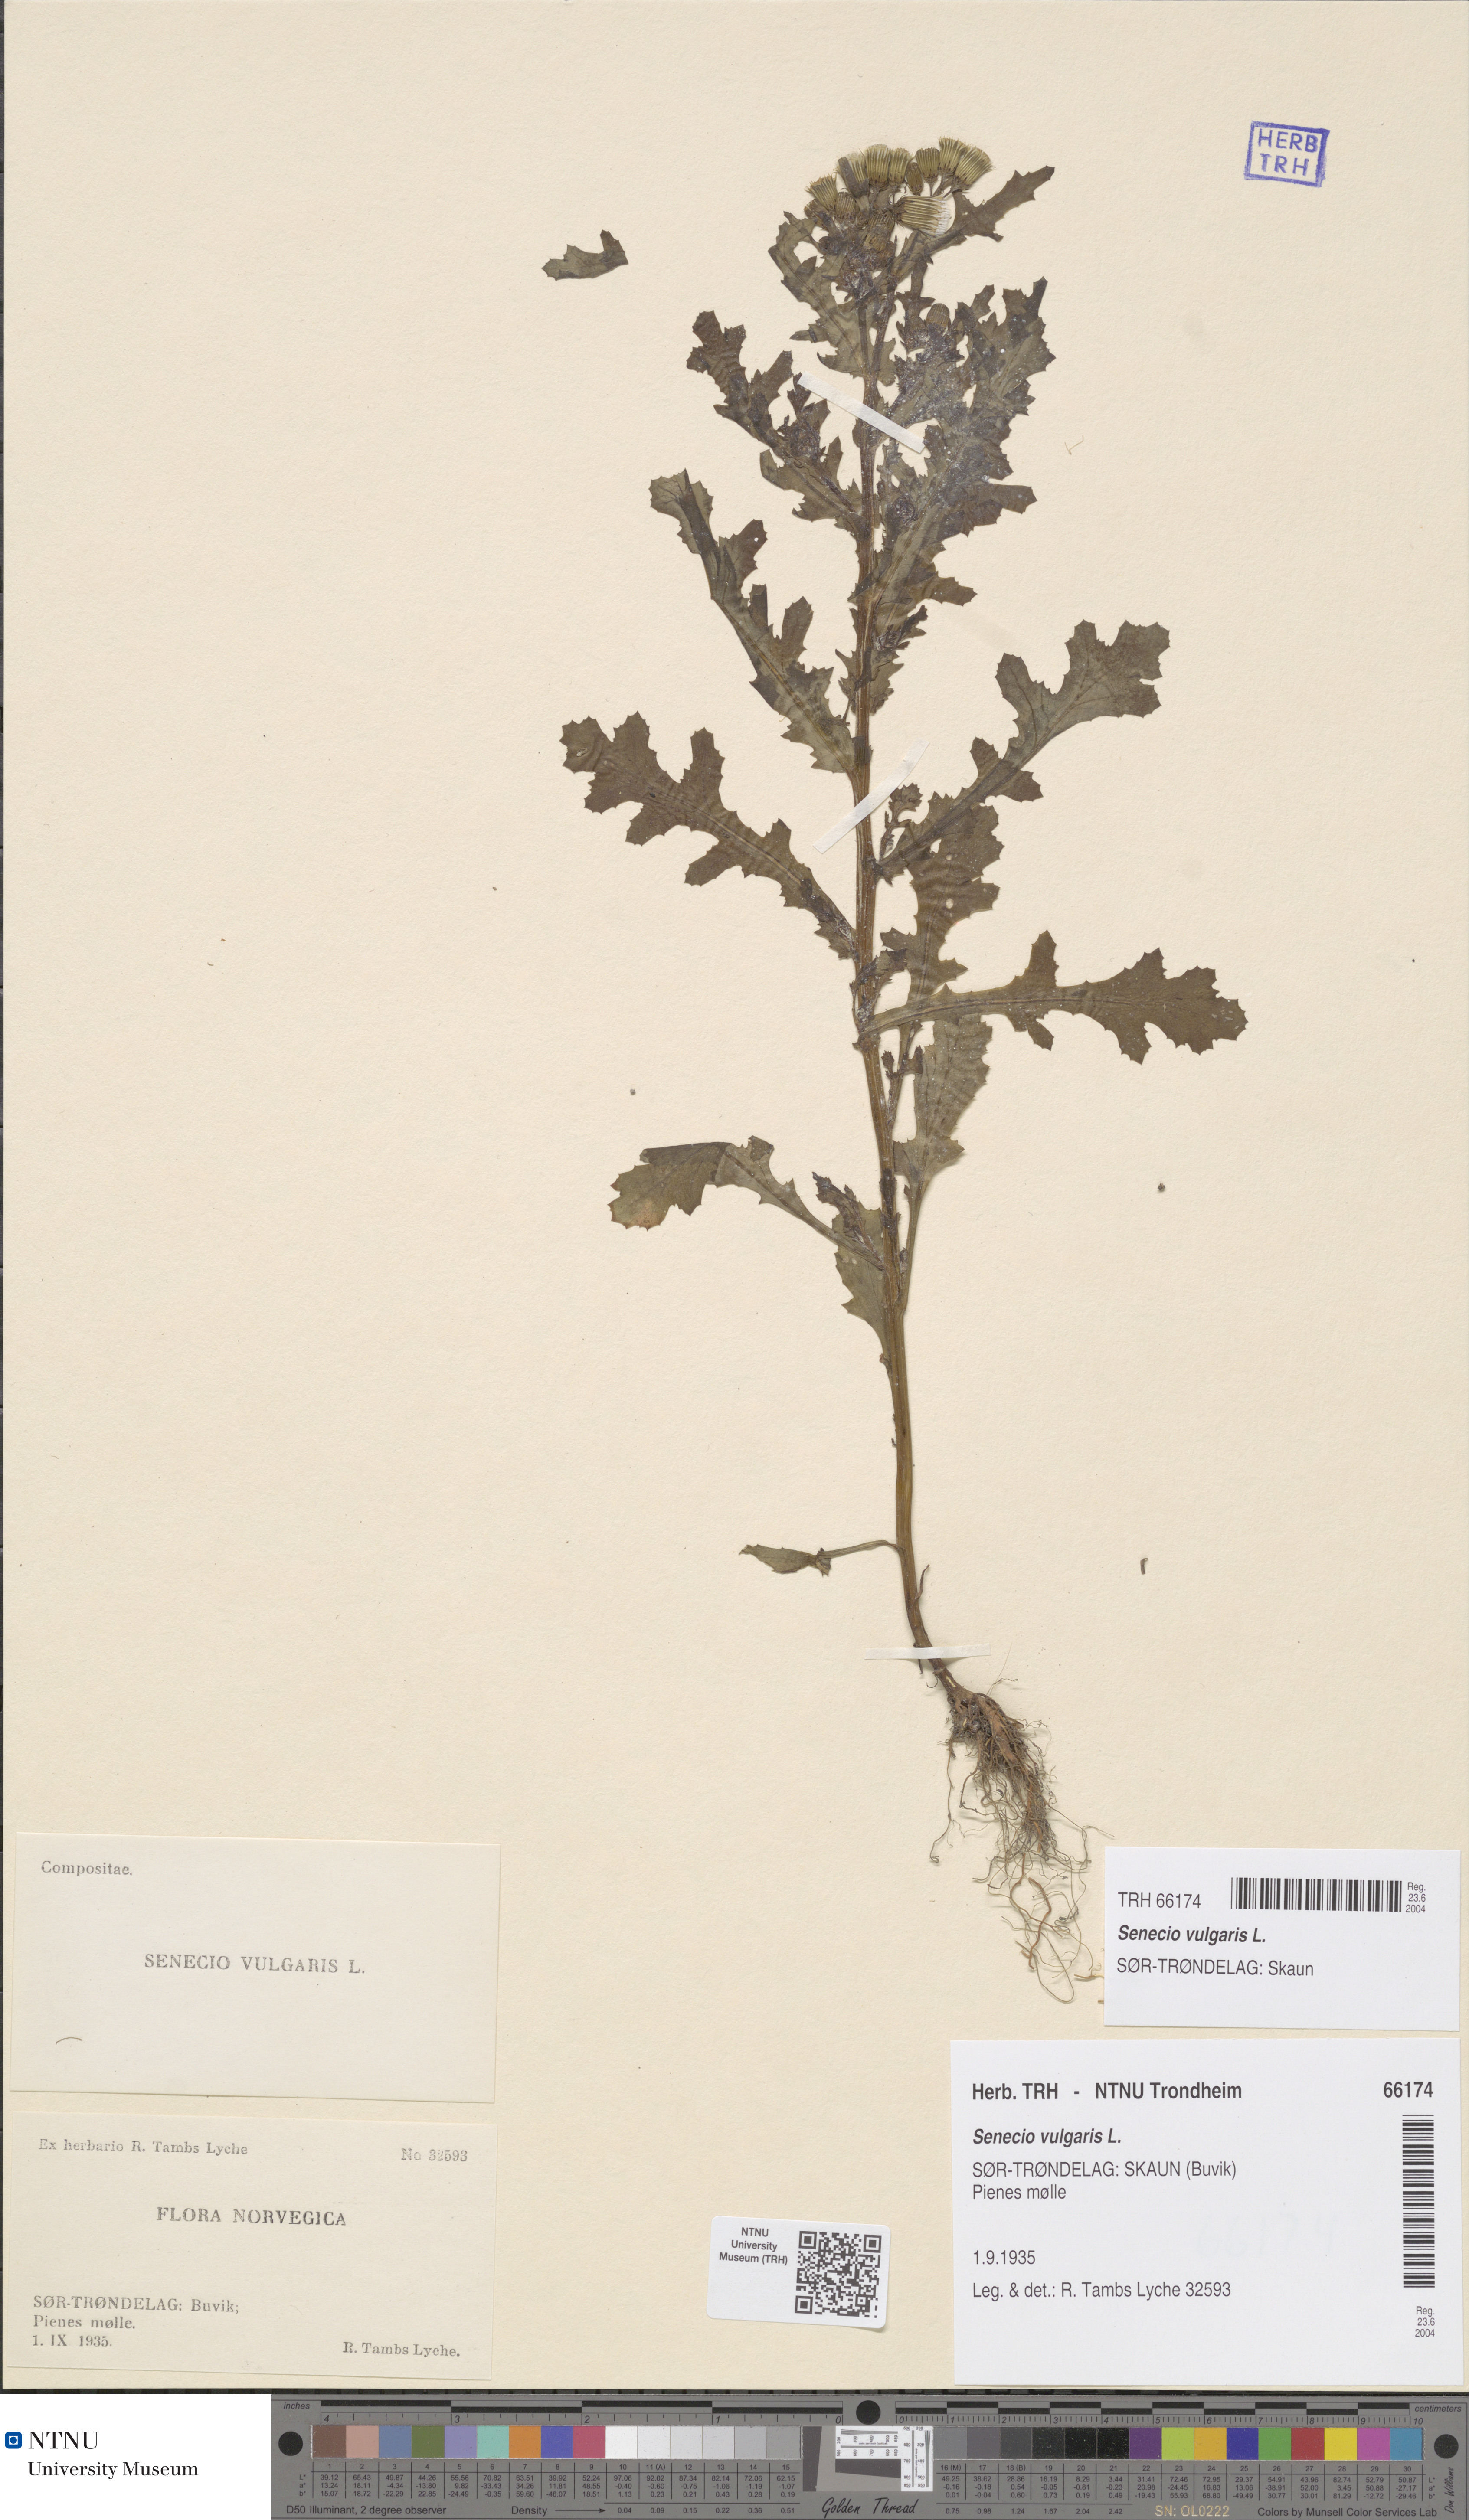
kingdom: Plantae
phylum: Tracheophyta
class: Magnoliopsida
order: Asterales
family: Asteraceae
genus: Senecio
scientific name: Senecio vulgaris
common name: Old-man-in-the-spring
